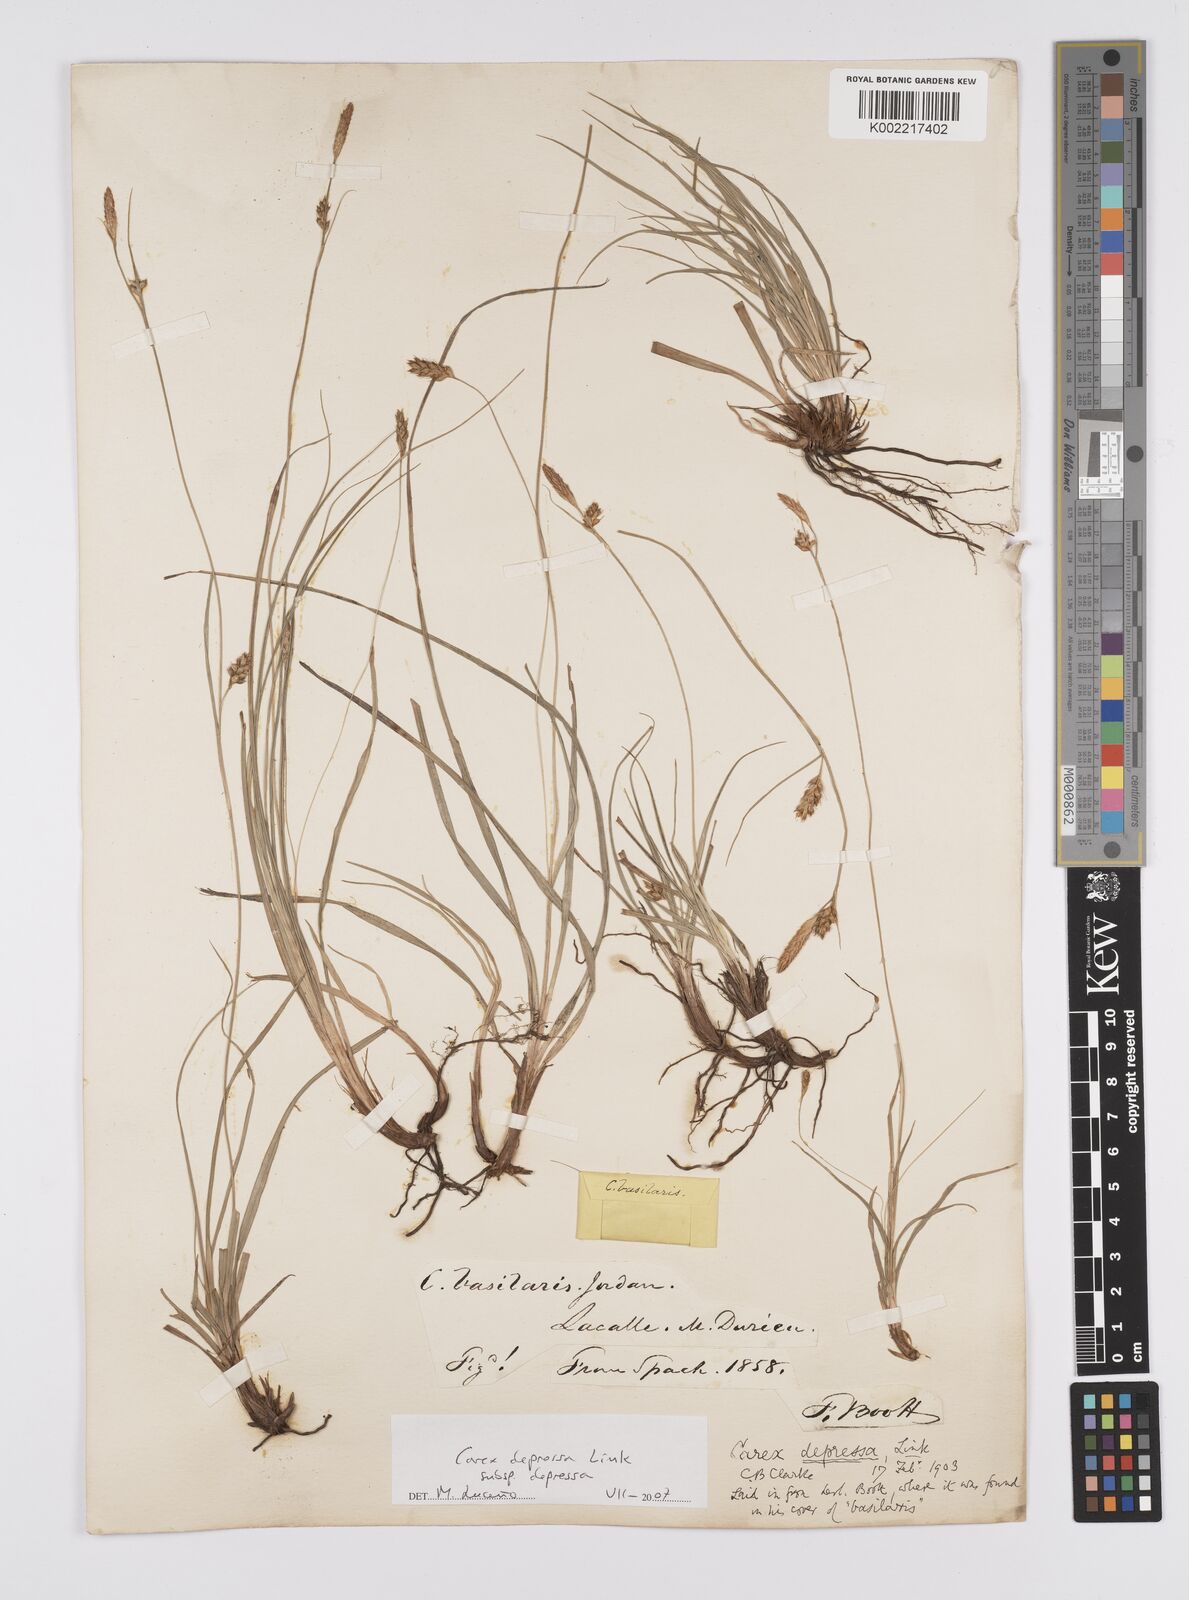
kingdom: Plantae
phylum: Tracheophyta
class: Liliopsida
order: Poales
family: Cyperaceae
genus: Carex
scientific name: Carex depressa
